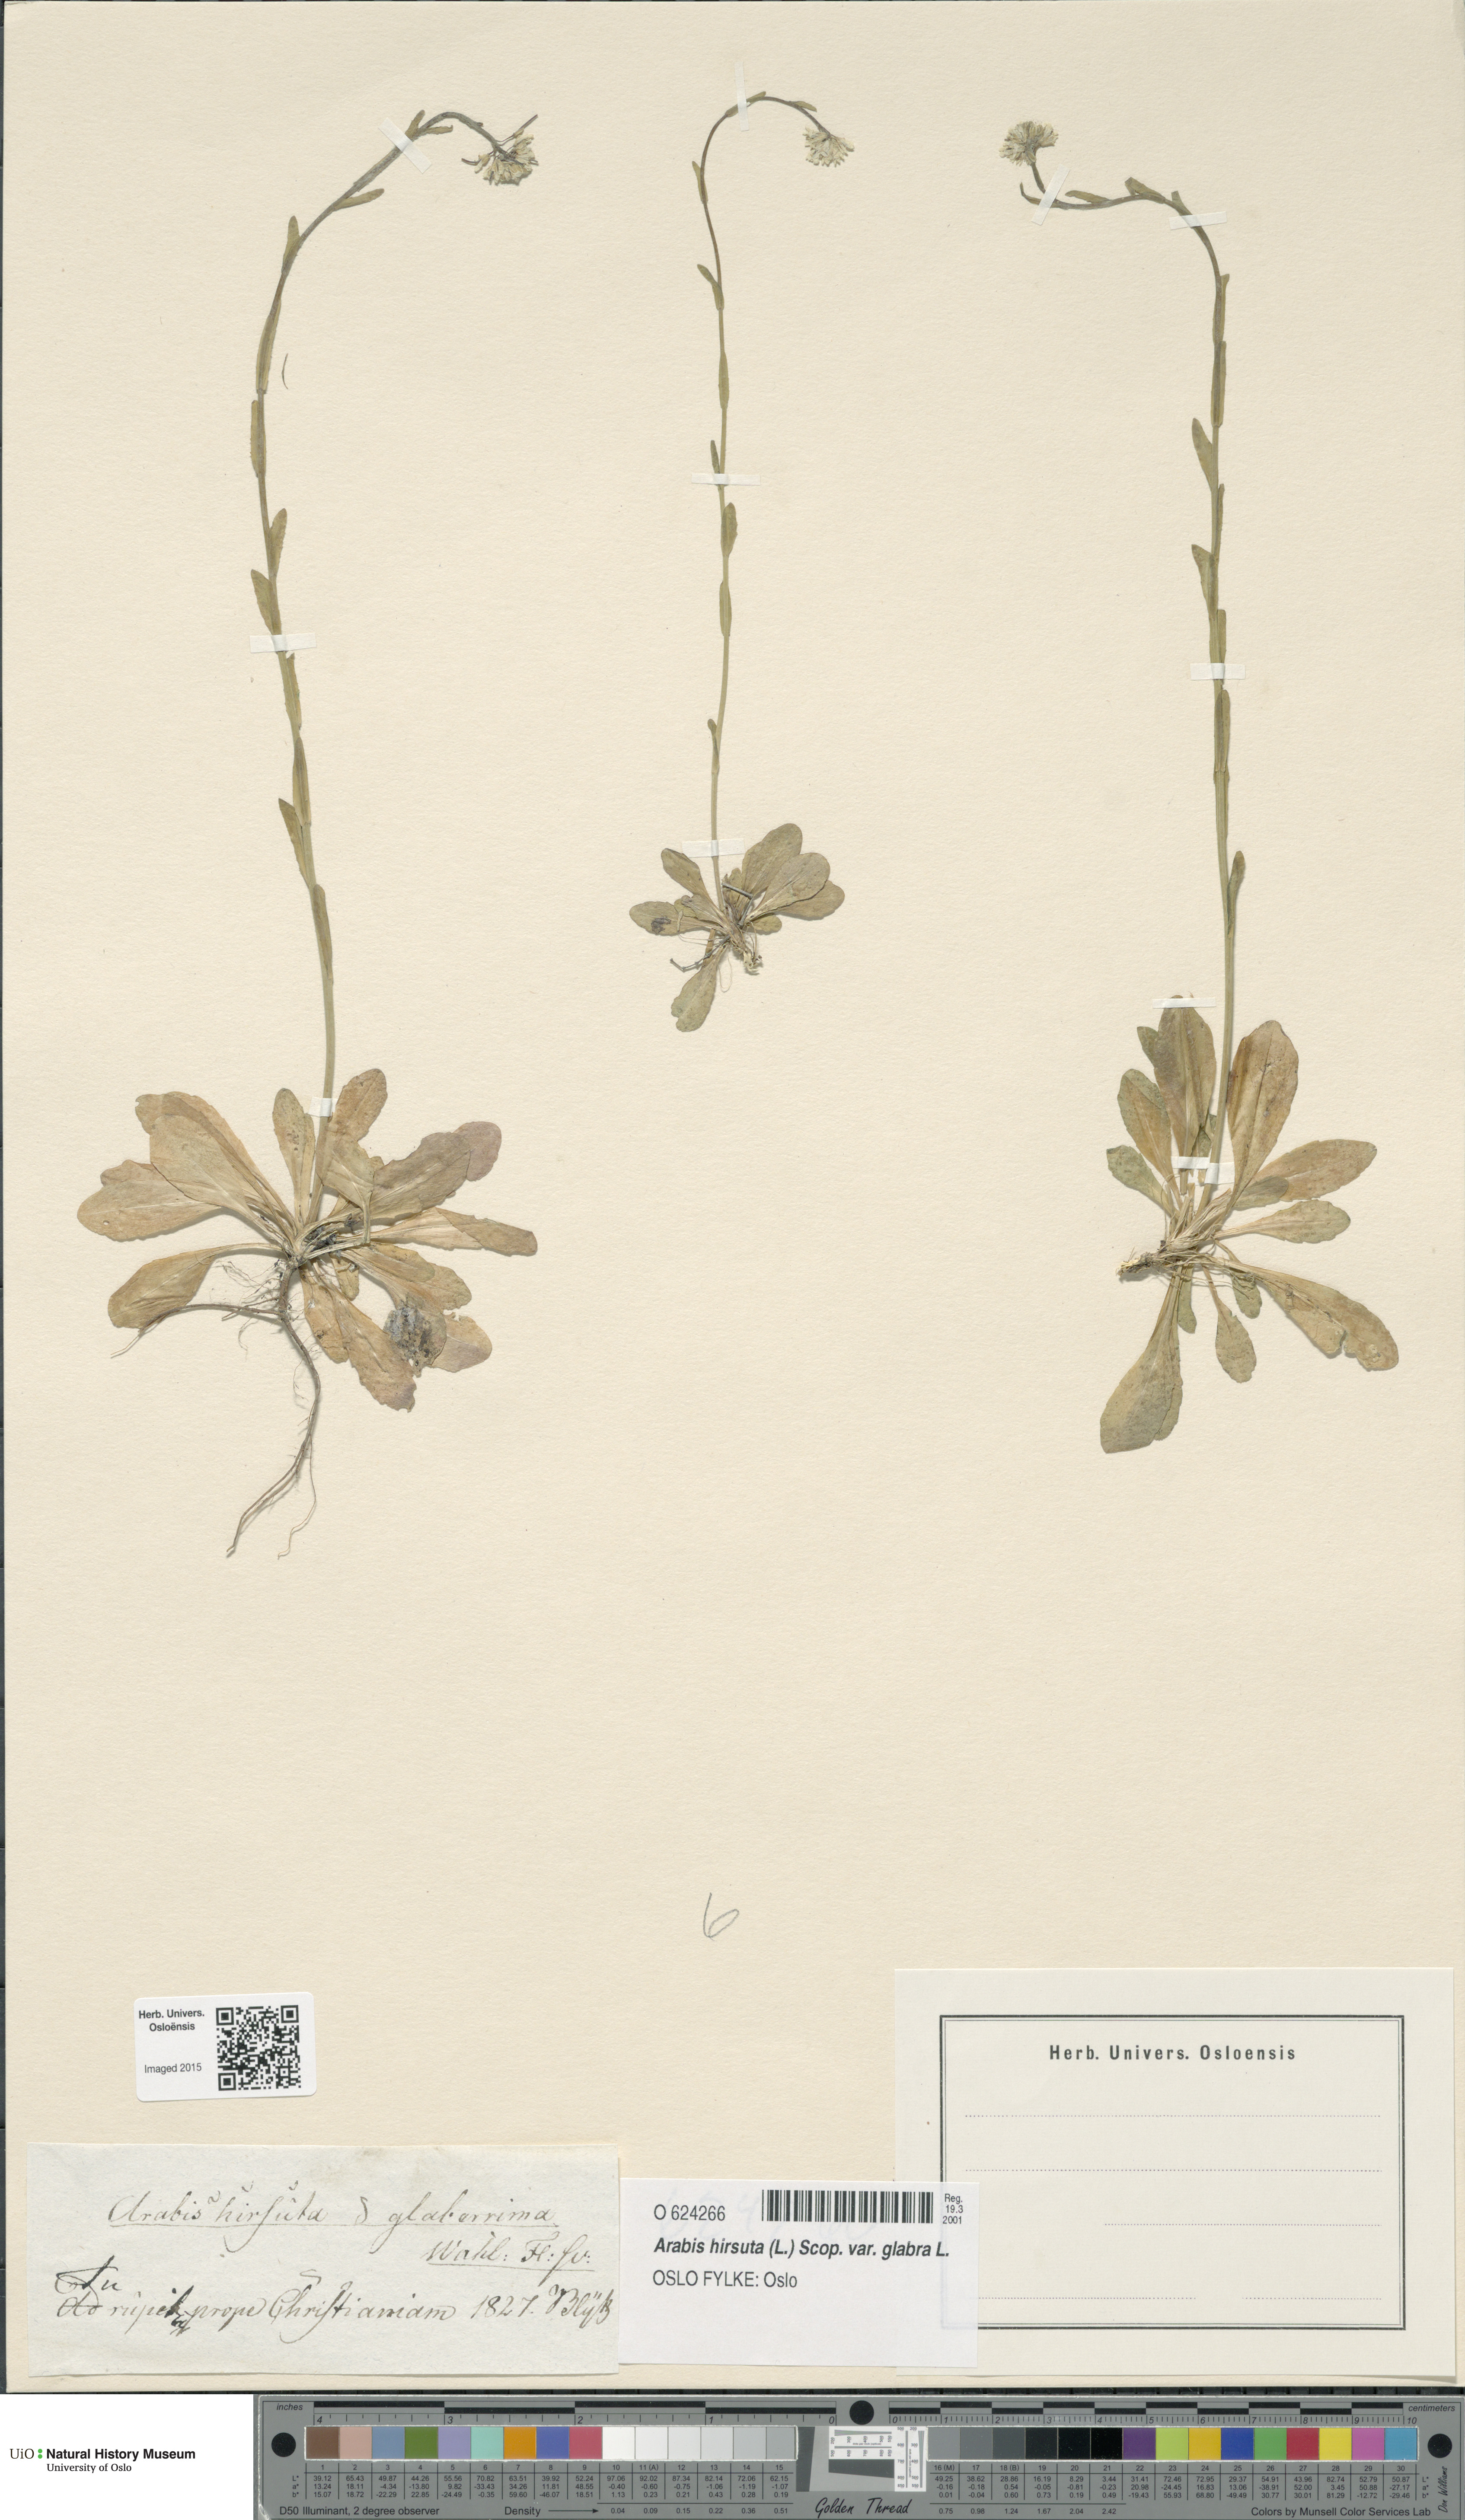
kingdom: Plantae
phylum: Tracheophyta
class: Magnoliopsida
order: Brassicales
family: Brassicaceae
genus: Arabis
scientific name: Arabis hirsuta
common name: Hairy rock-cress
